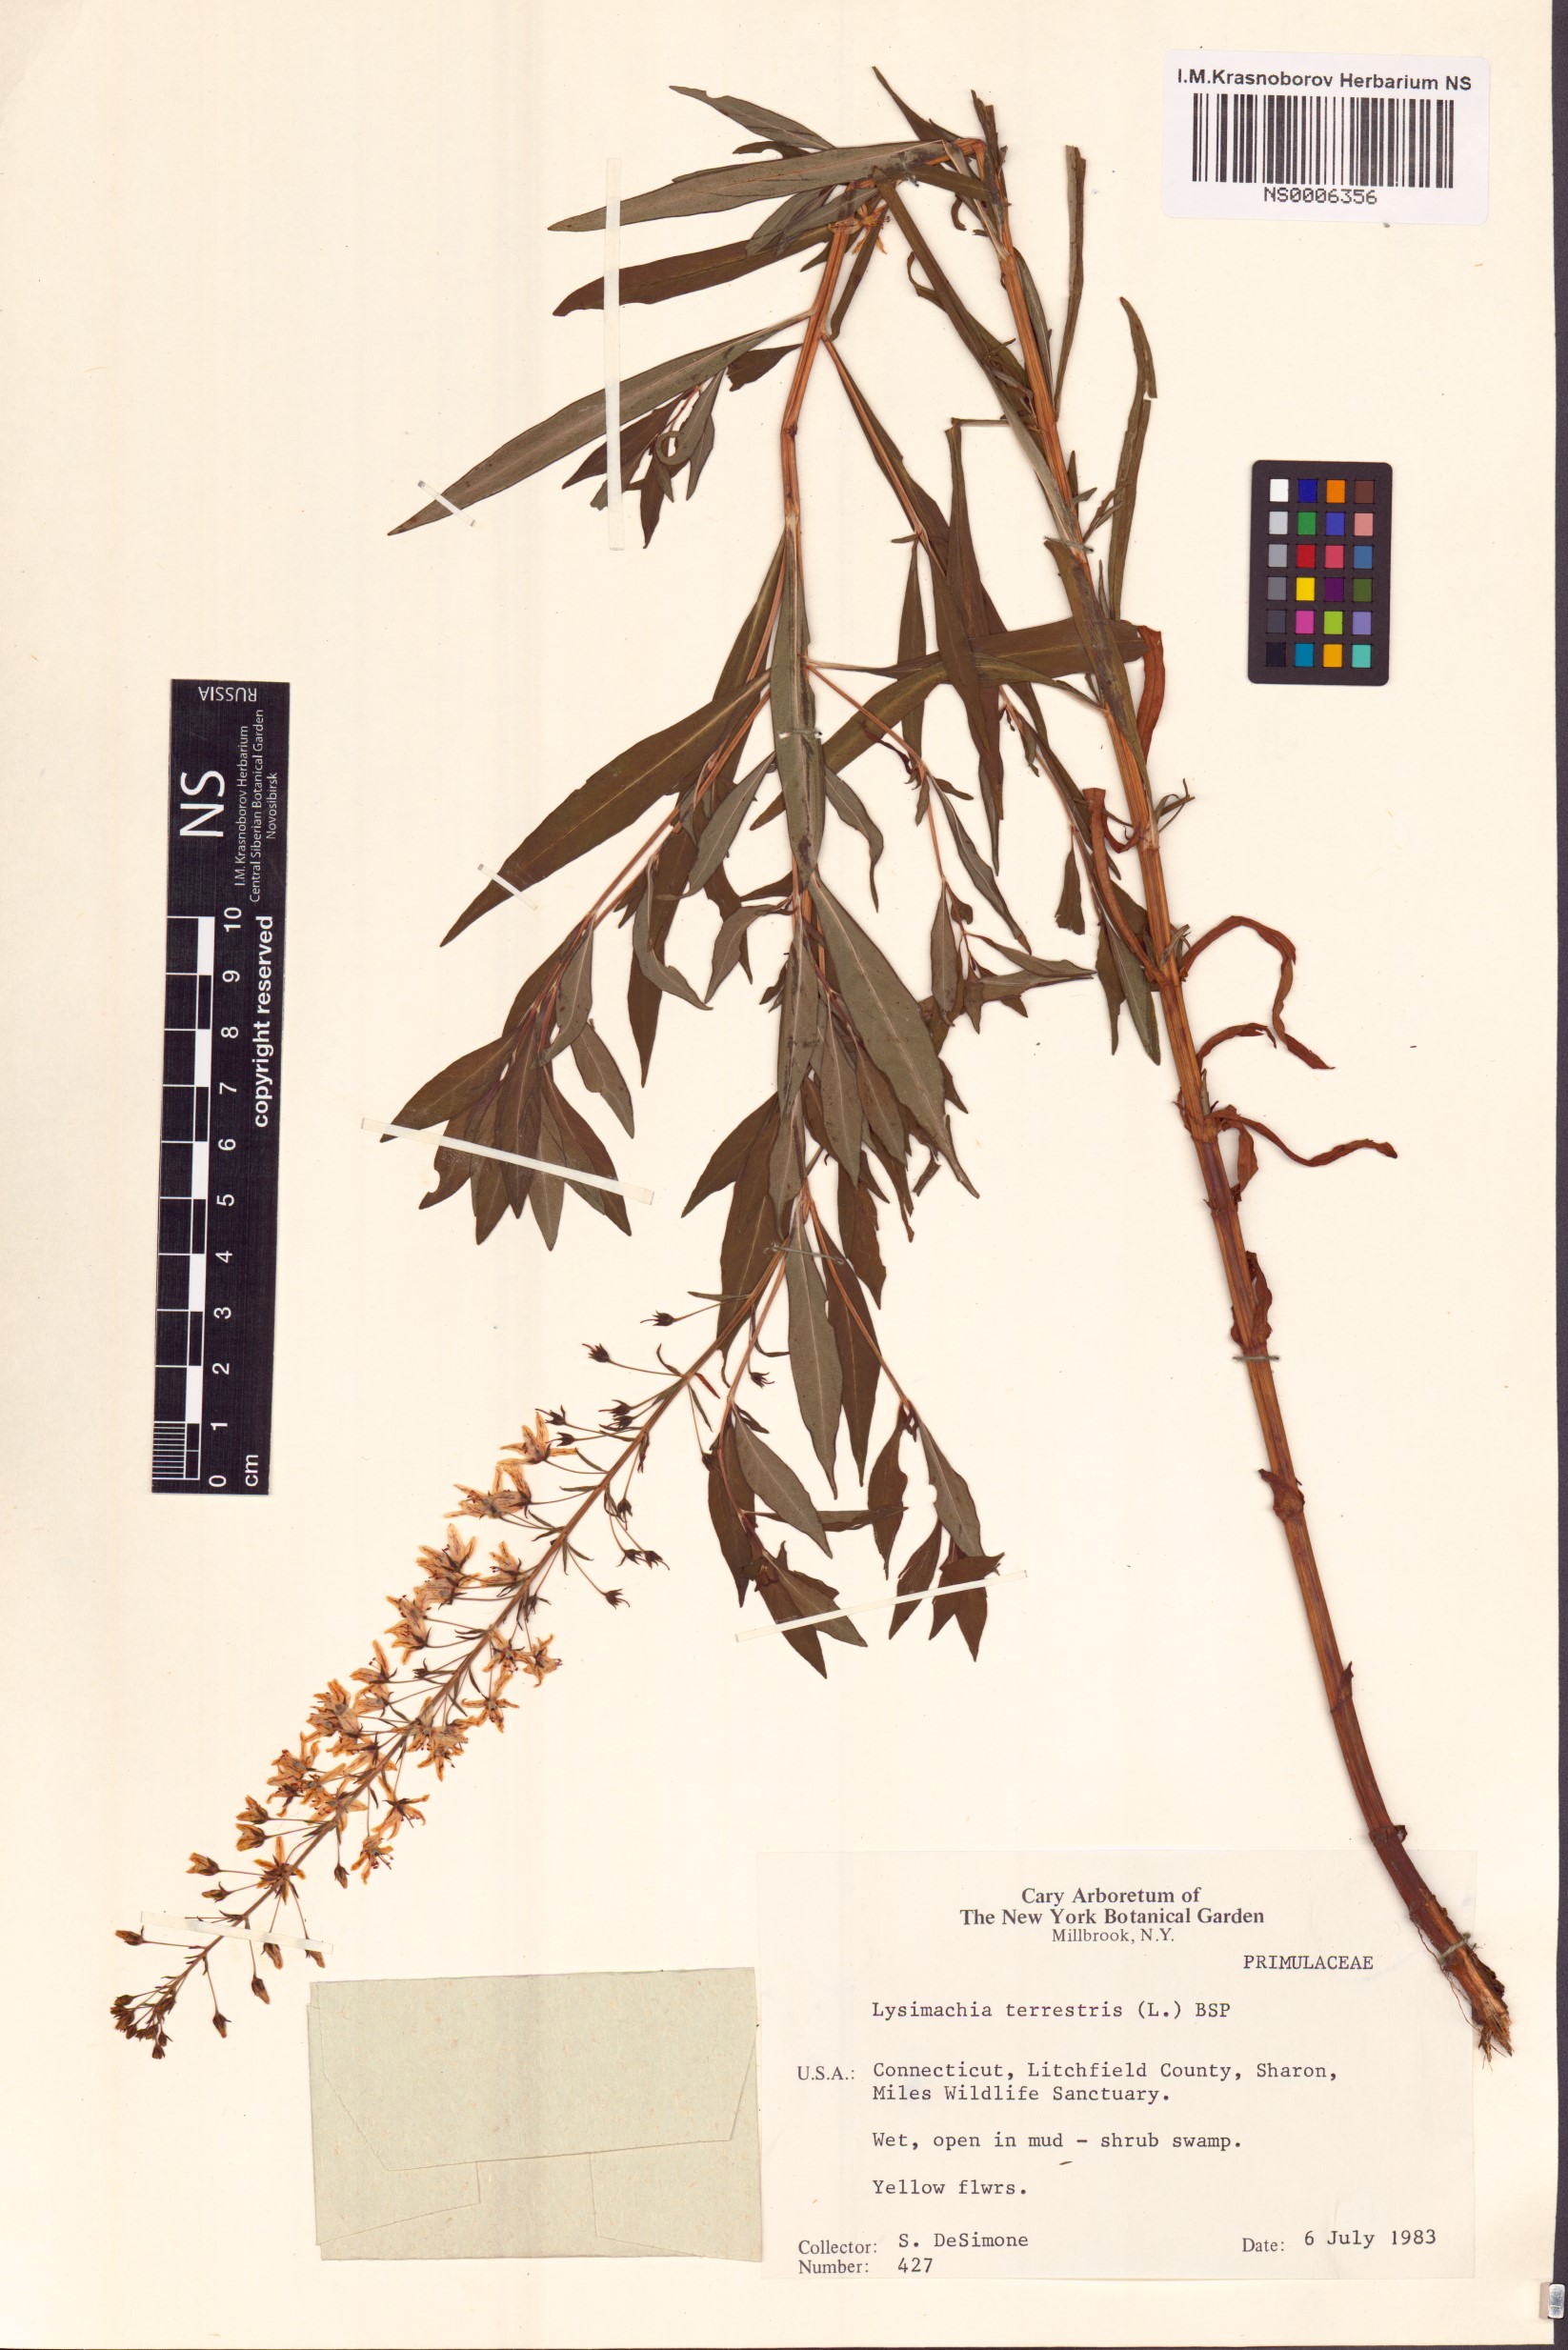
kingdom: Plantae
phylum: Tracheophyta
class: Magnoliopsida
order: Ericales
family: Primulaceae
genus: Lysimachia
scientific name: Lysimachia terrestris
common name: Lake loosestrife
